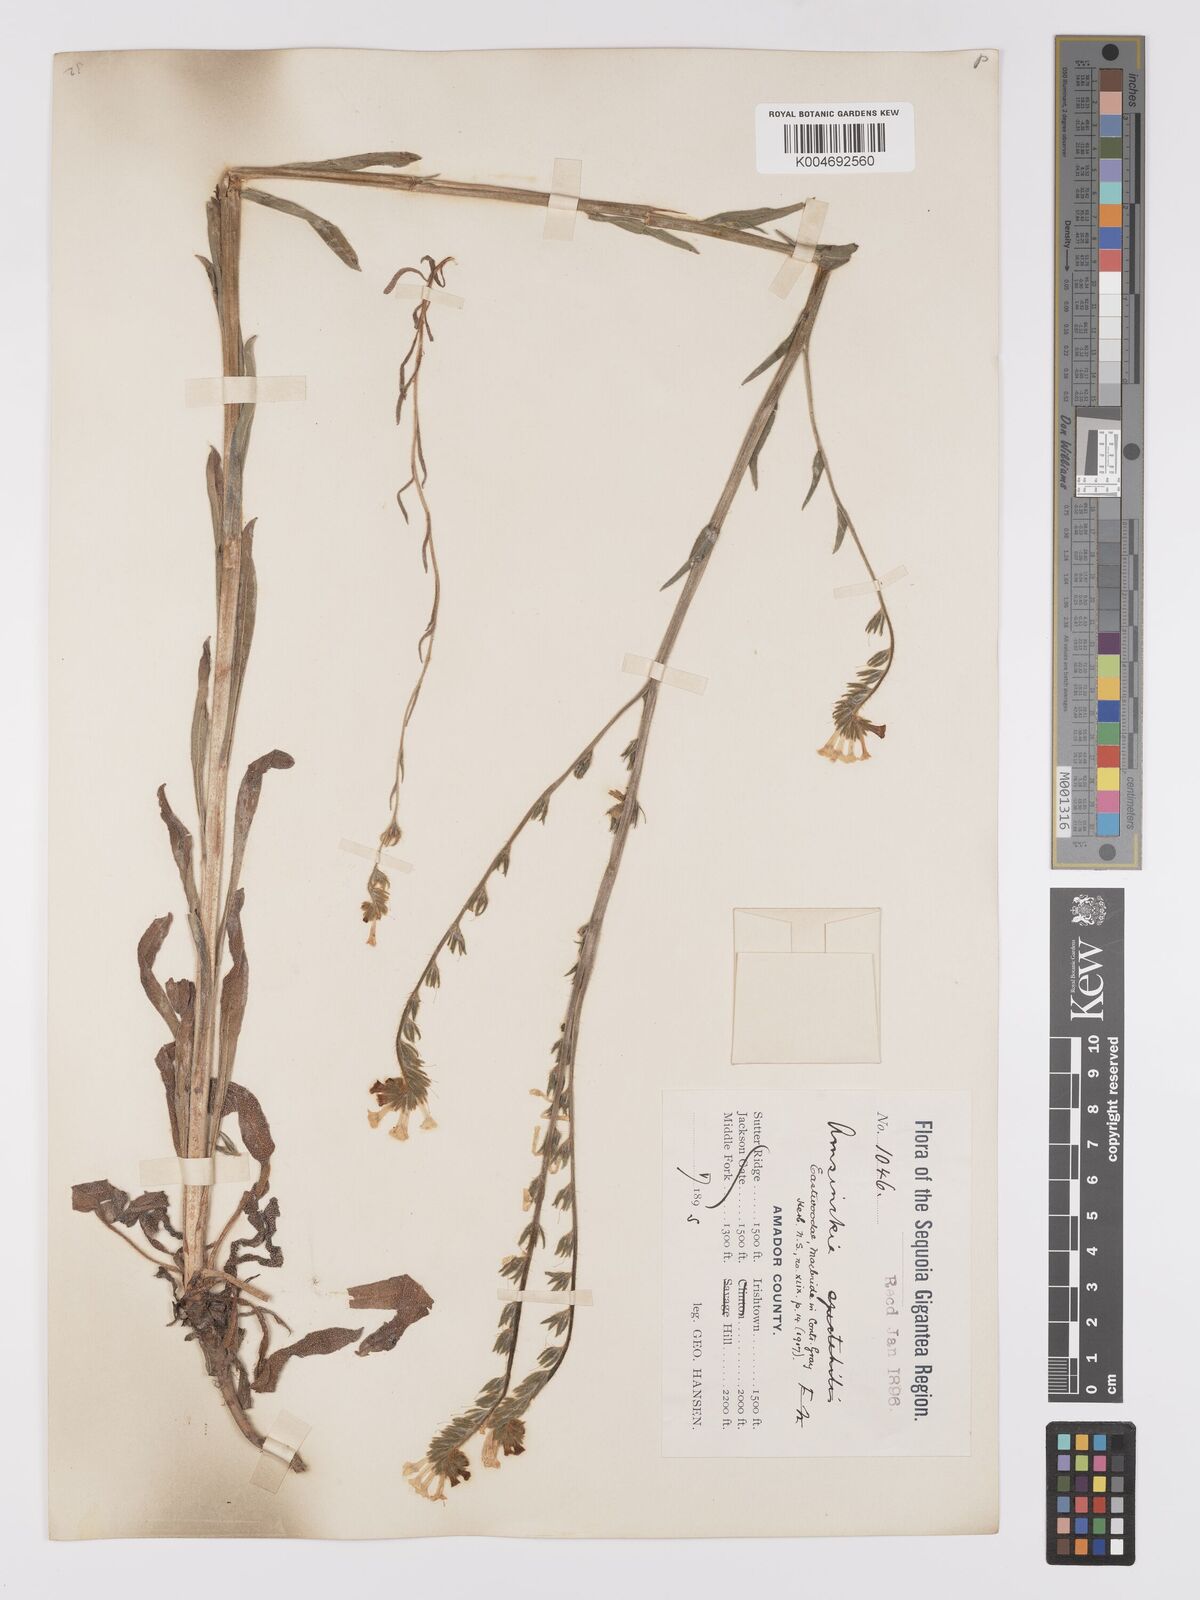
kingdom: Plantae
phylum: Tracheophyta
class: Magnoliopsida
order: Boraginales
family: Boraginaceae
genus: Amsinckia
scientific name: Amsinckia eastwoodiae
